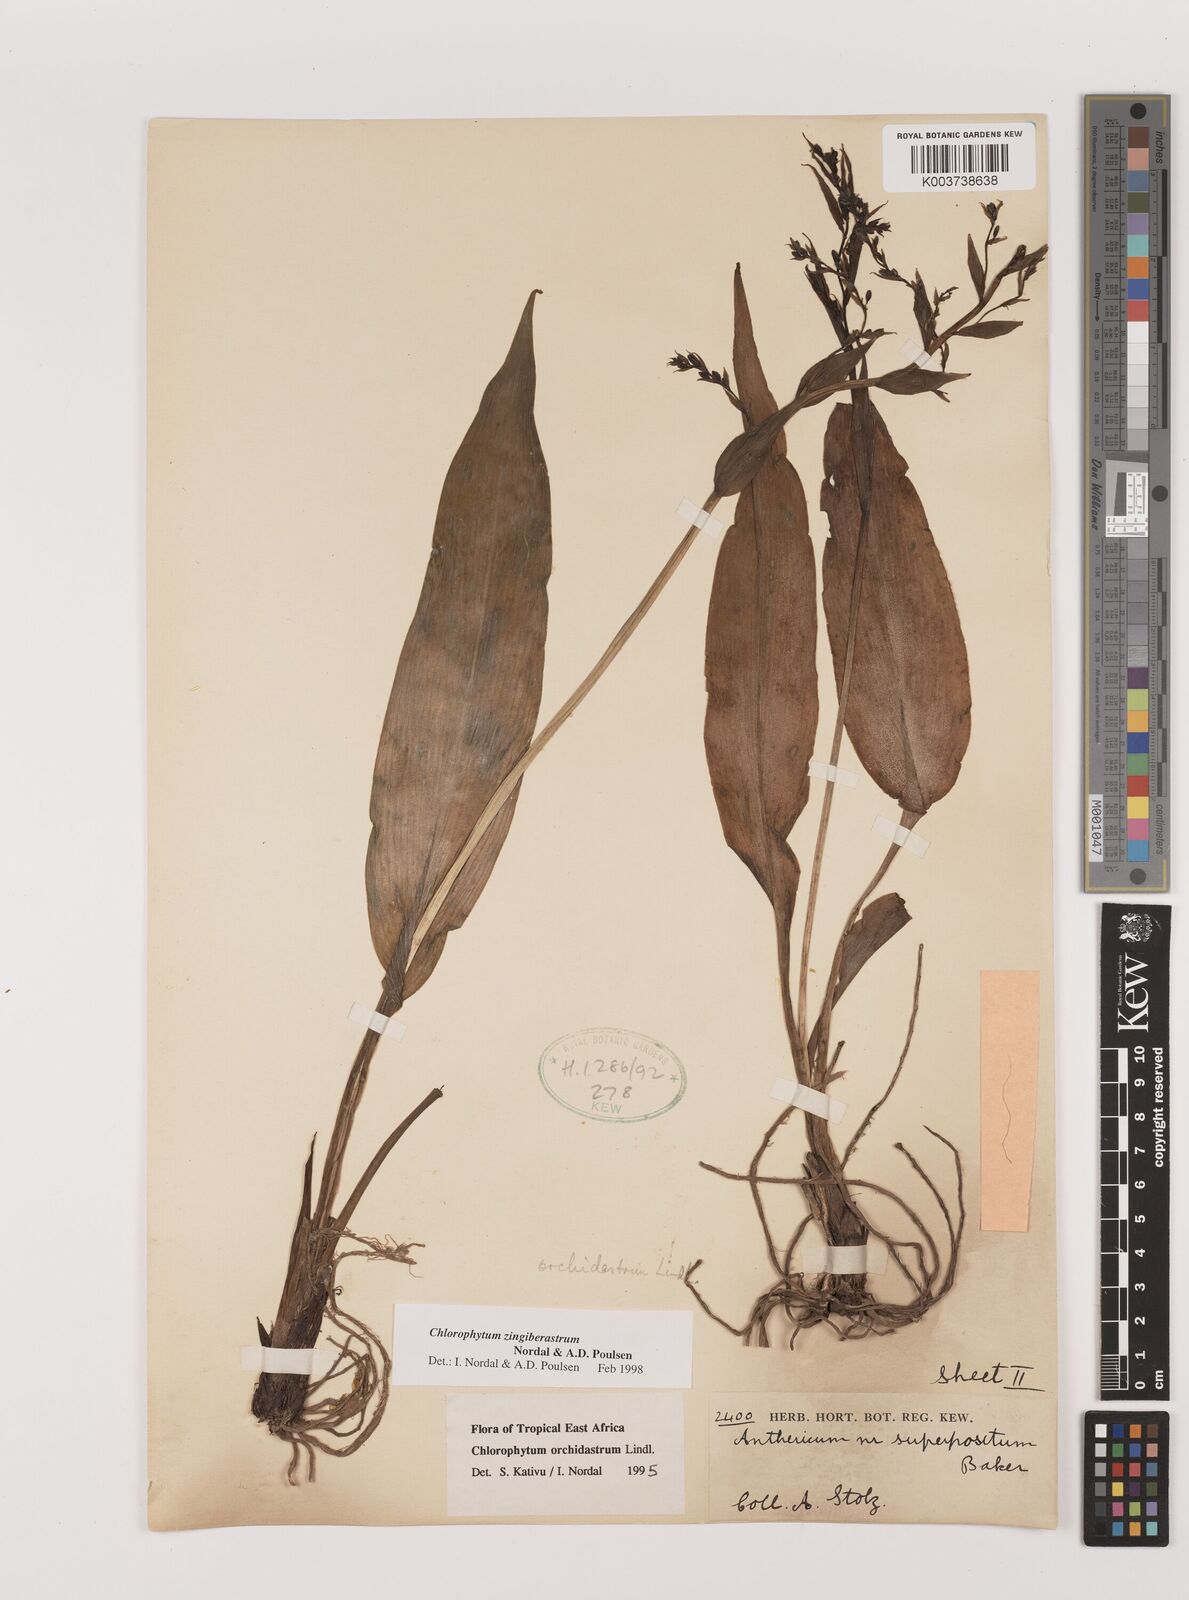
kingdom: Plantae
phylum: Tracheophyta
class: Liliopsida
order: Asparagales
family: Asparagaceae
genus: Chlorophytum
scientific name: Chlorophytum zingiberastrum
